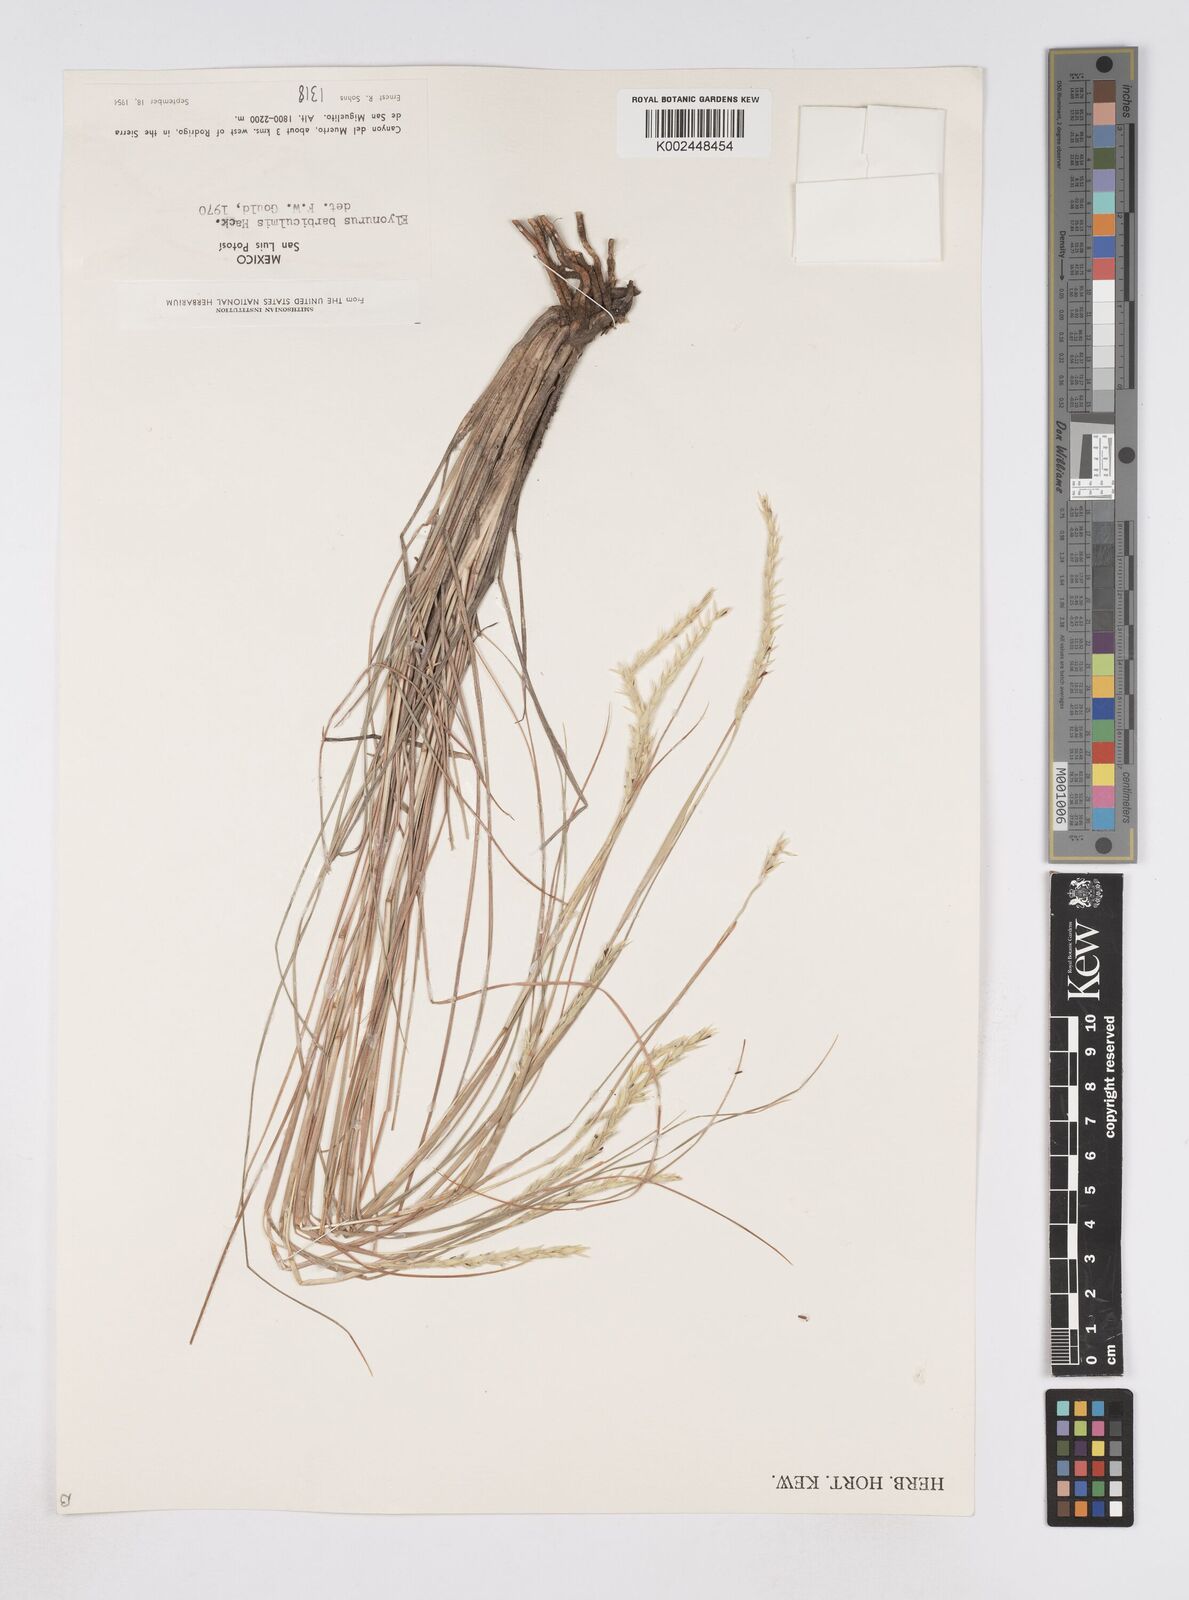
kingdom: Plantae
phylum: Tracheophyta
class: Liliopsida
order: Poales
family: Poaceae
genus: Elionurus
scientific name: Elionurus barbiculmis
